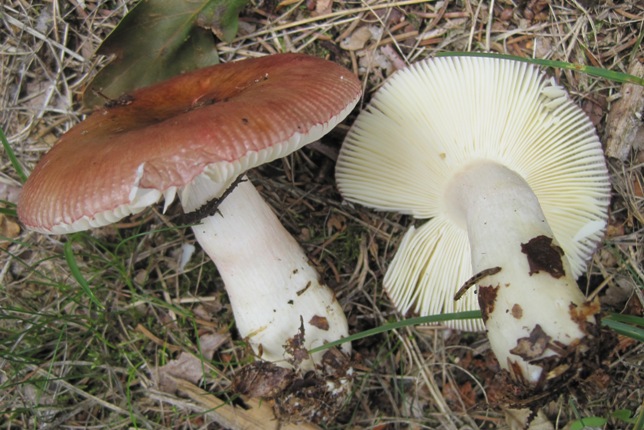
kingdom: Fungi
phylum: Basidiomycota
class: Agaricomycetes
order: Russulales
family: Russulaceae
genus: Russula
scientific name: Russula nitida
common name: året skørhat
